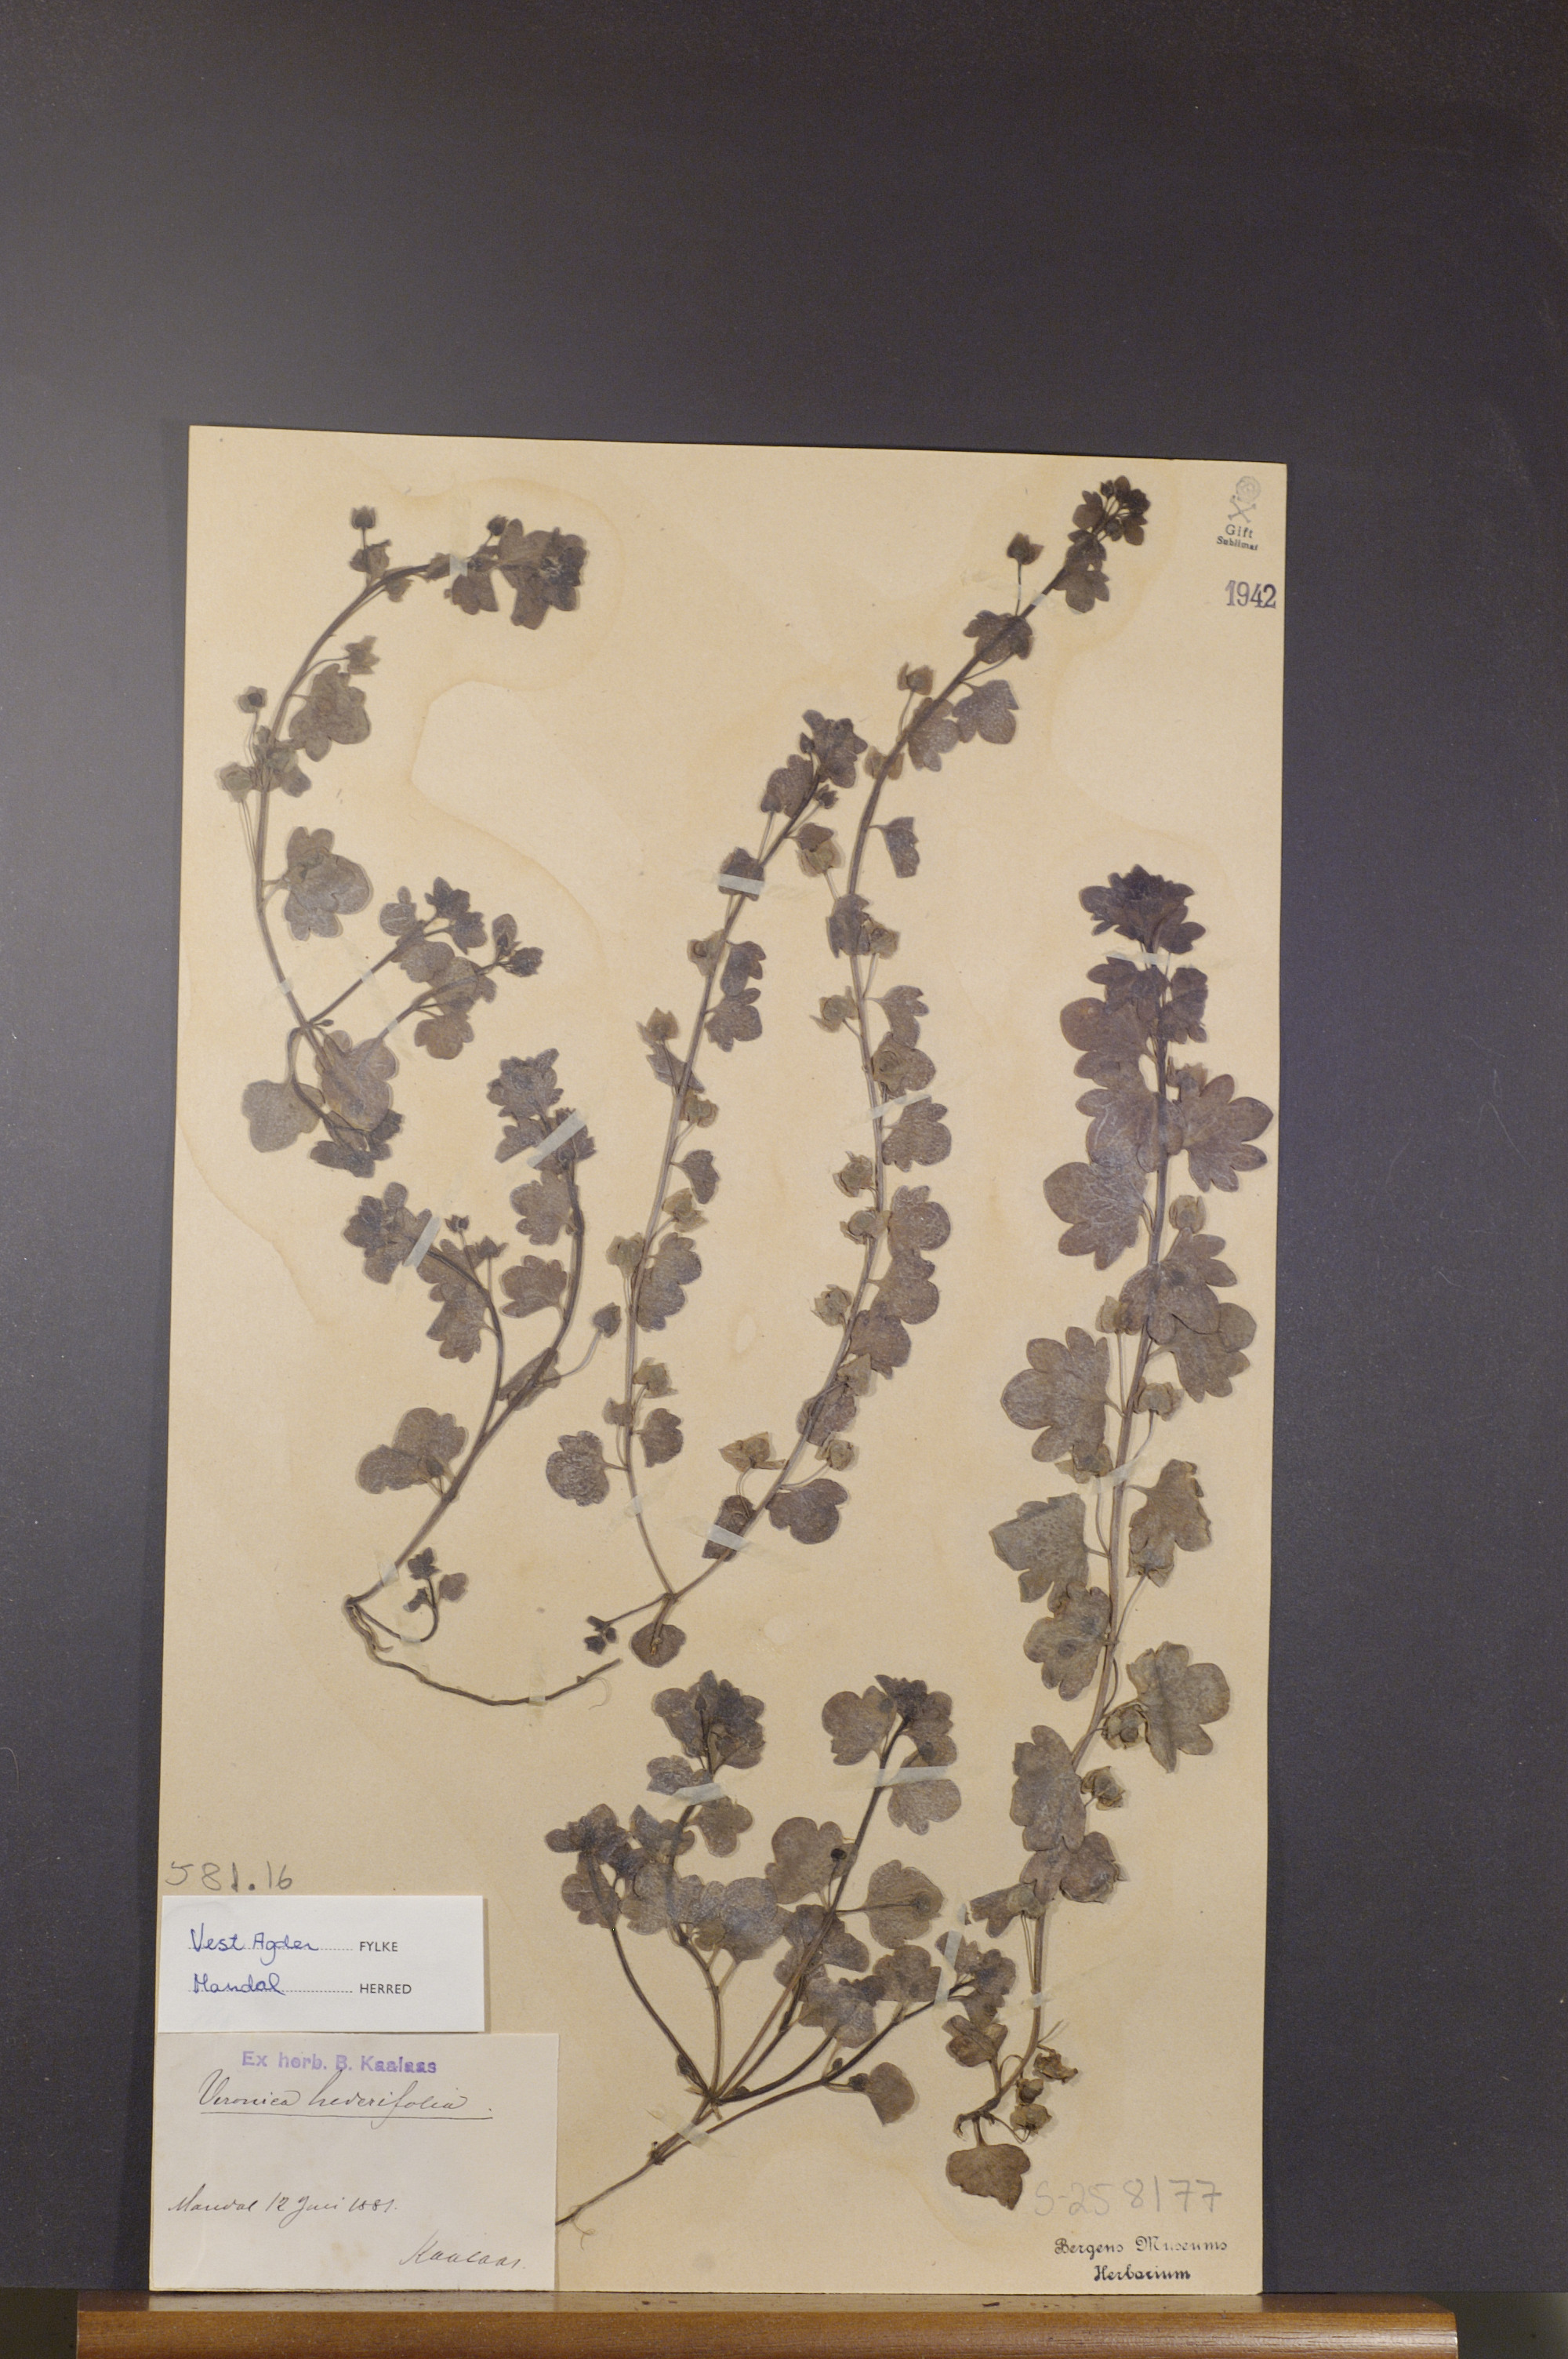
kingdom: Plantae
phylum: Tracheophyta
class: Magnoliopsida
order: Lamiales
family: Plantaginaceae
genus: Veronica
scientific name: Veronica hederifolia
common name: Ivy-leaved speedwell
